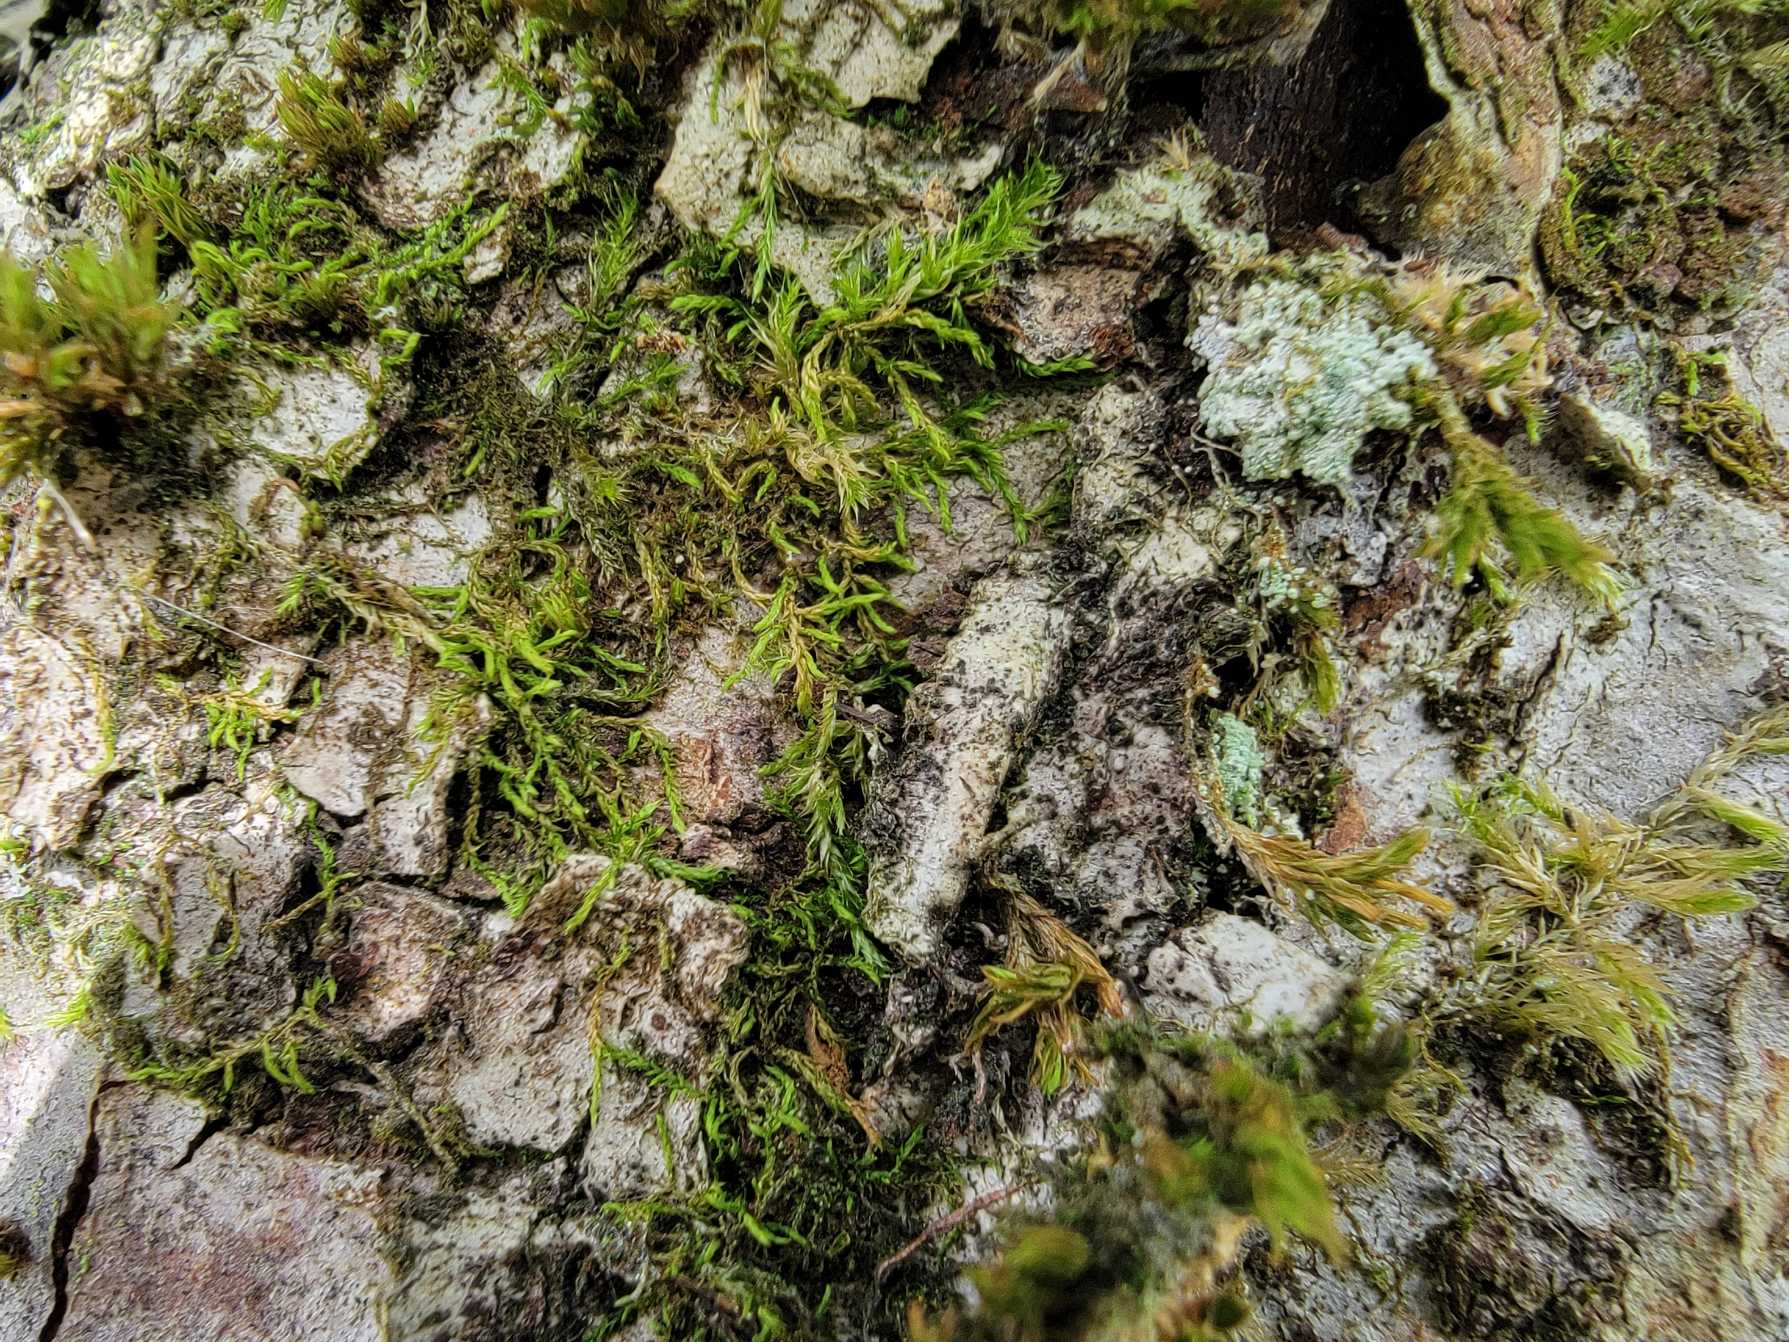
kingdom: Plantae
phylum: Bryophyta
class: Bryopsida
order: Hypnales
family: Leskeaceae
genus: Leskea
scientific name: Leskea polycarpa
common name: Mat lærkemos
